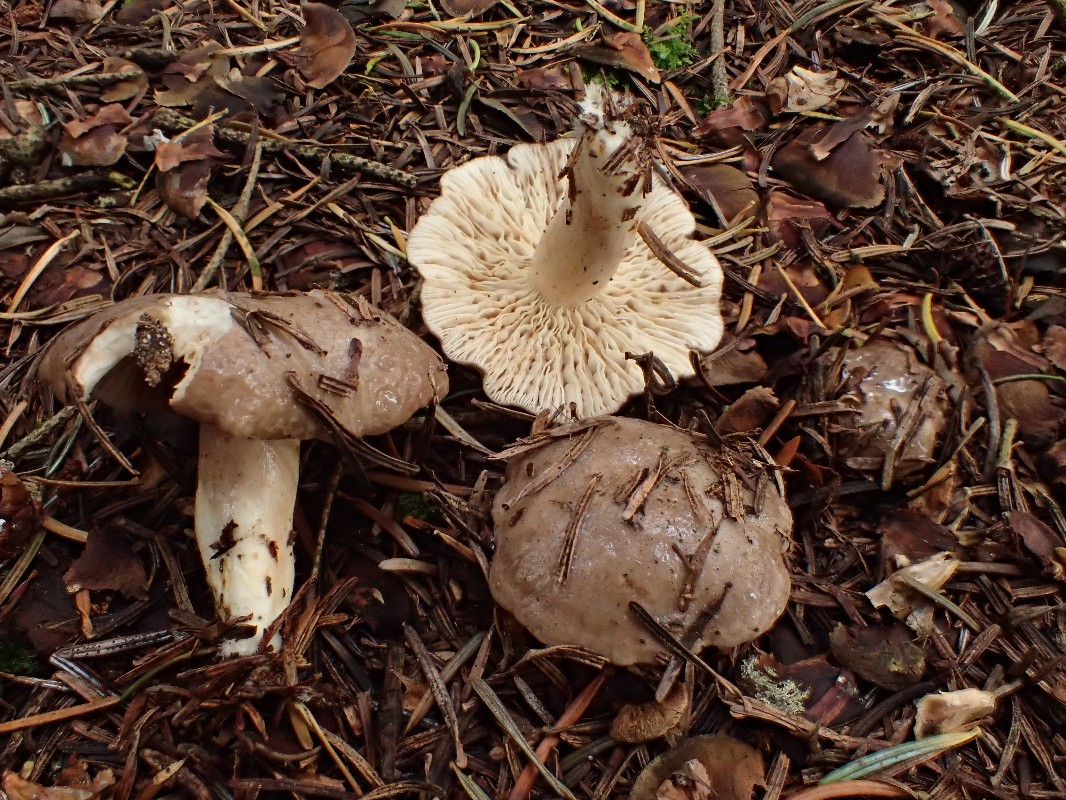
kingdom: Fungi
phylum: Basidiomycota
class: Agaricomycetes
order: Russulales
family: Russulaceae
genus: Lactarius
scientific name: Lactarius albocarneus
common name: ædelgran-mælkehat
